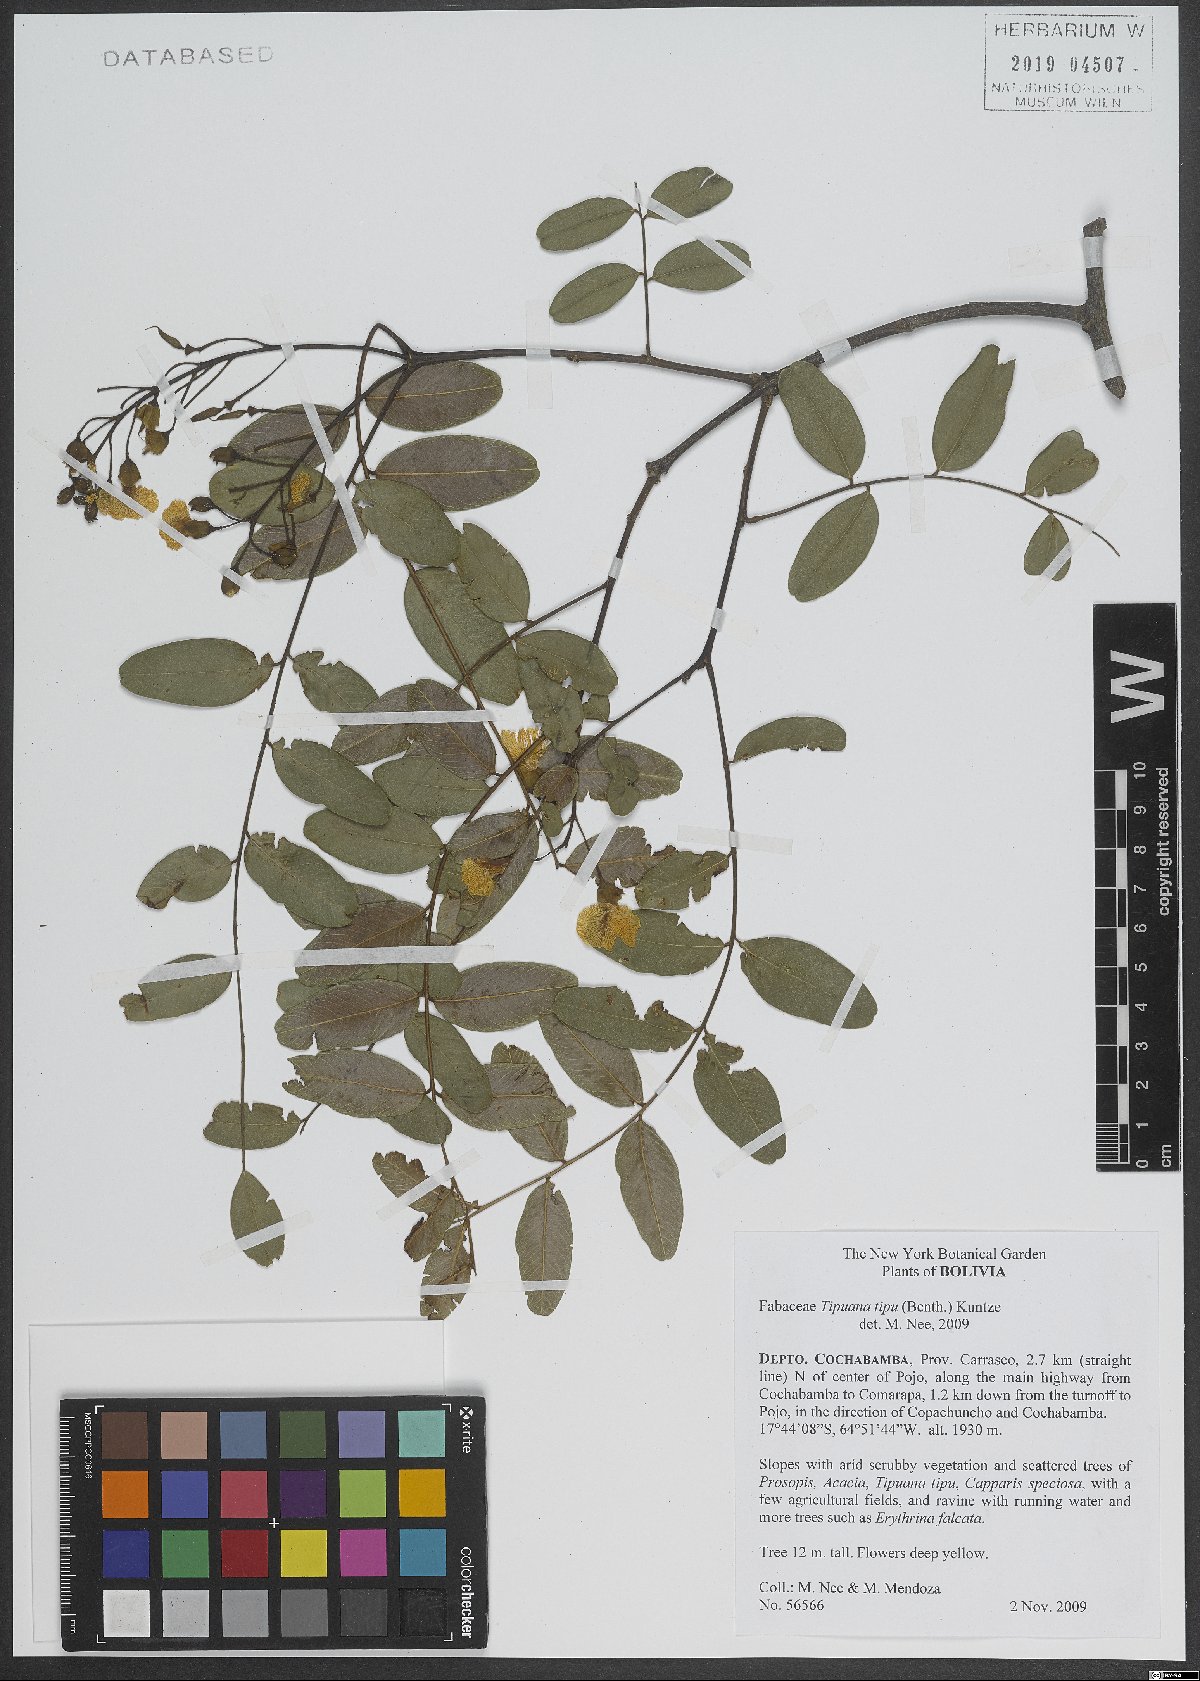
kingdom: Plantae
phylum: Tracheophyta
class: Magnoliopsida
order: Fabales
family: Fabaceae
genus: Tipuana
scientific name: Tipuana tipu
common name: Tiputree
